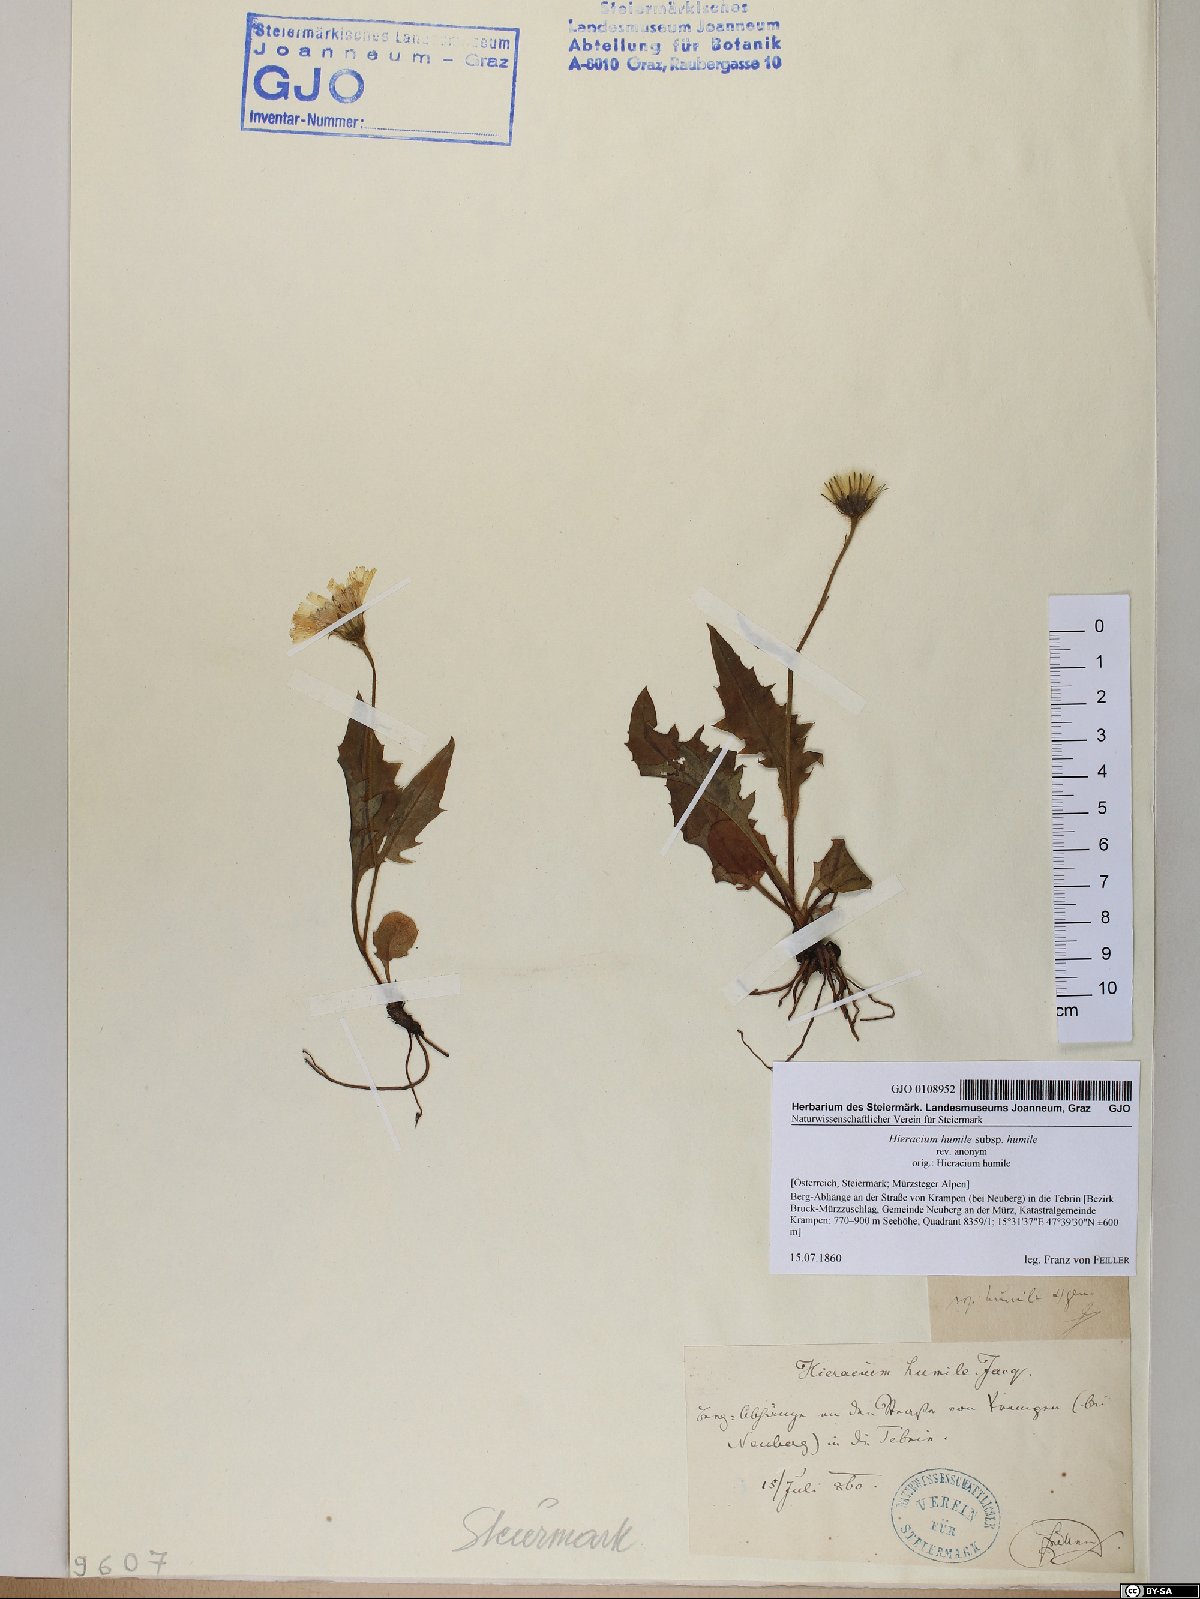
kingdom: Plantae
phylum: Tracheophyta
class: Magnoliopsida
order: Asterales
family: Asteraceae
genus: Hieracium
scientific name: Hieracium humile
